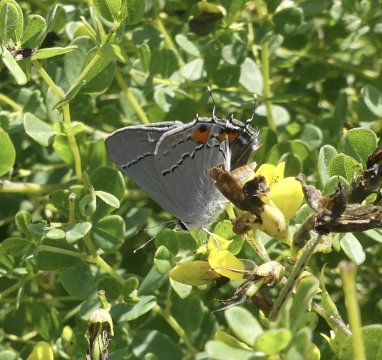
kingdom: Animalia
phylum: Arthropoda
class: Insecta
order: Lepidoptera
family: Lycaenidae
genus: Strymon
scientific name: Strymon melinus
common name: Gray Hairstreak
